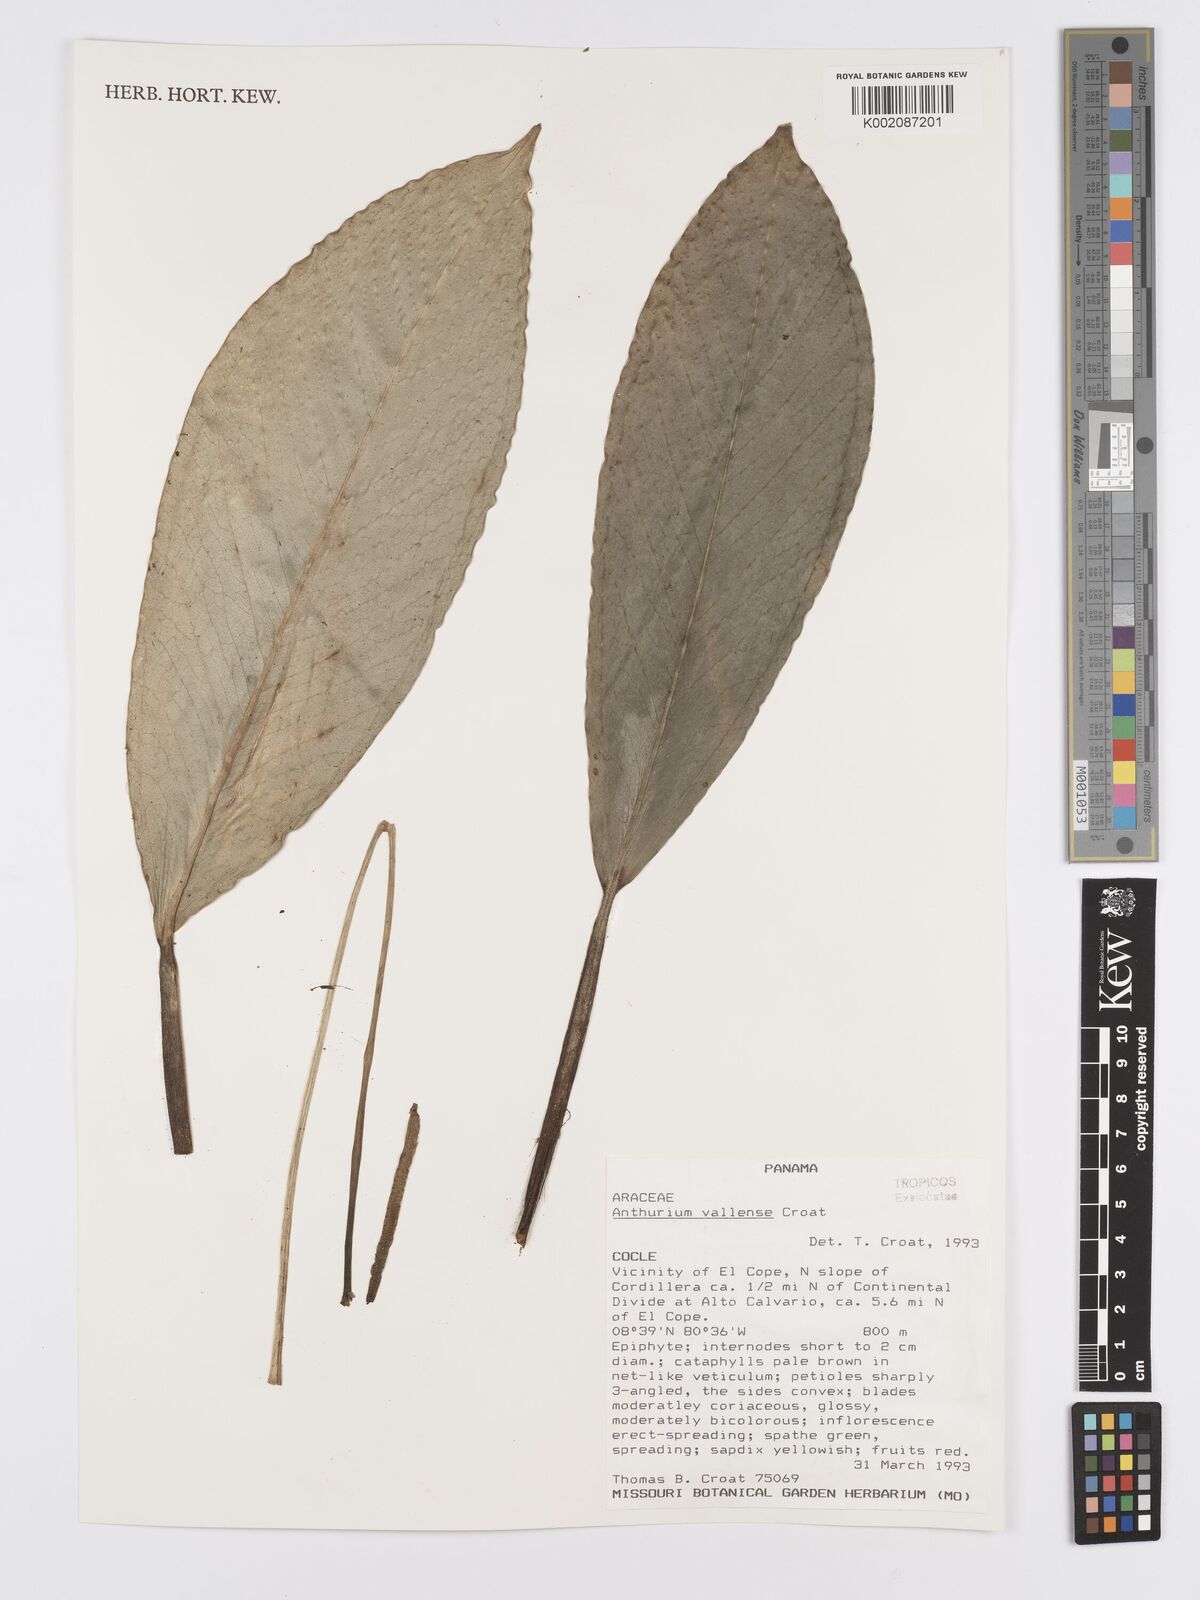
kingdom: Plantae
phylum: Tracheophyta
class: Liliopsida
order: Alismatales
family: Araceae
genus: Anthurium
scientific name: Anthurium vallense
